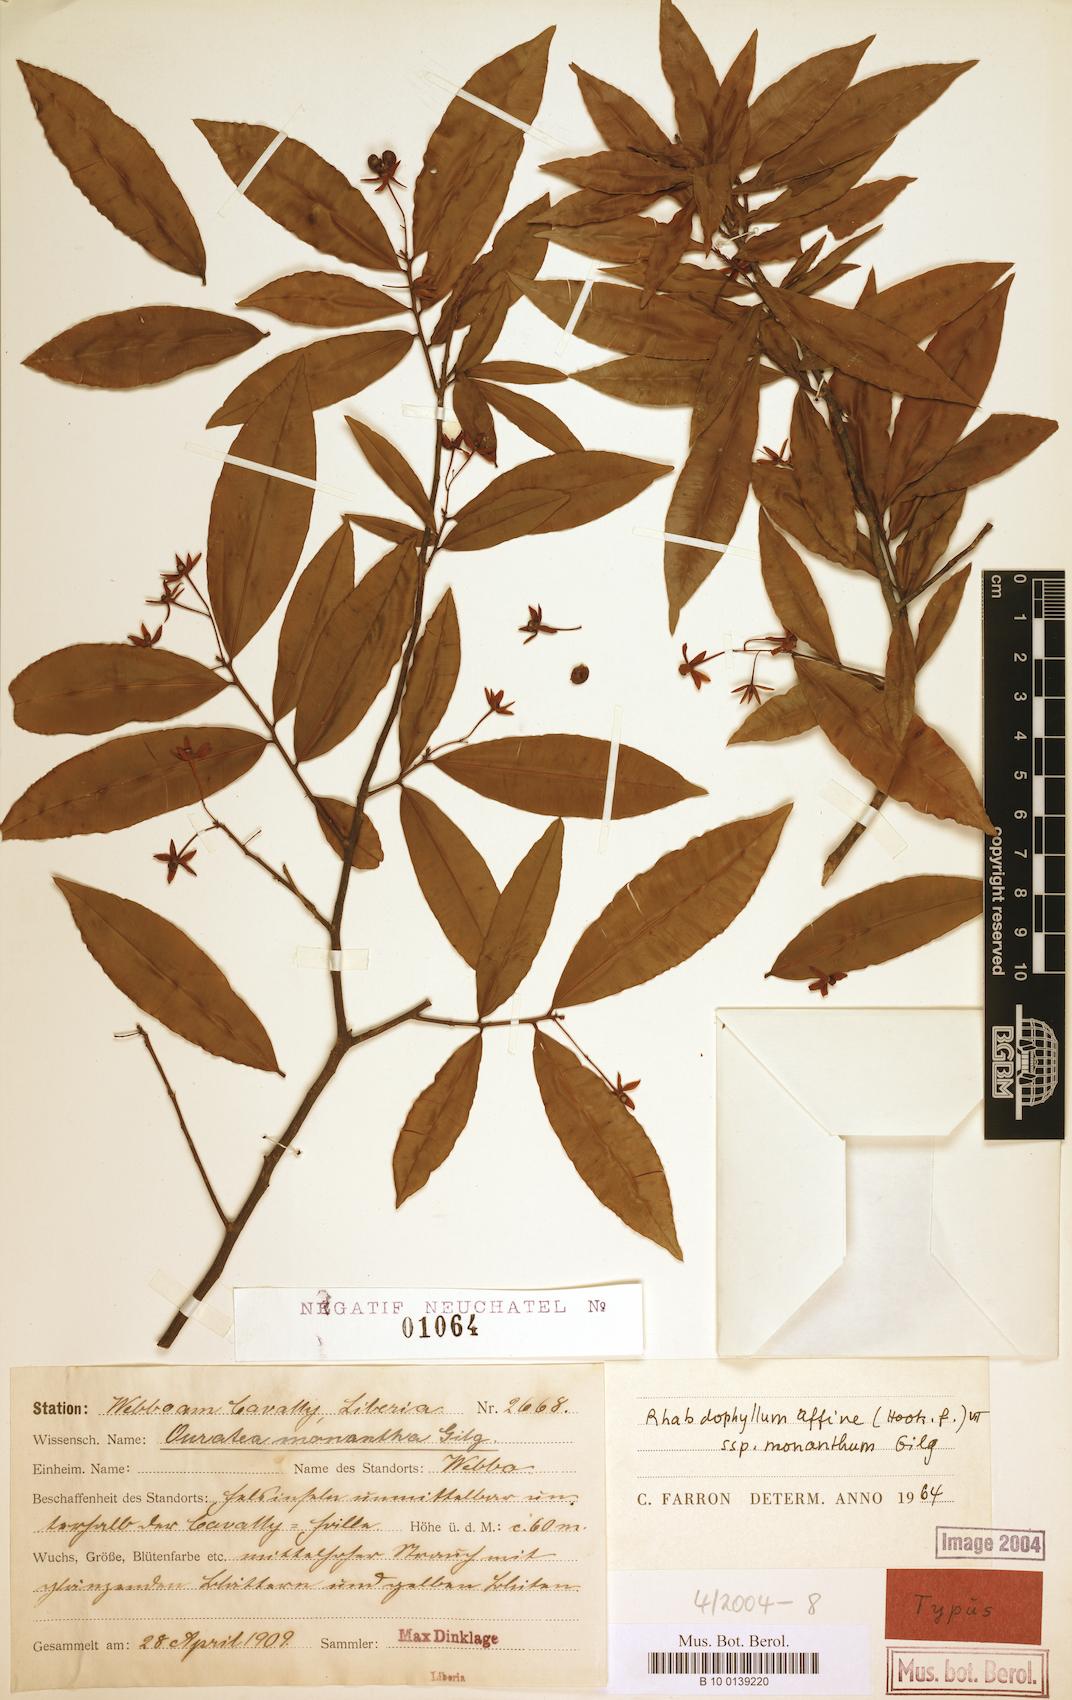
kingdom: Plantae
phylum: Tracheophyta
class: Magnoliopsida
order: Malpighiales
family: Ochnaceae
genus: Rhabdophyllum
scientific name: Rhabdophyllum affine
